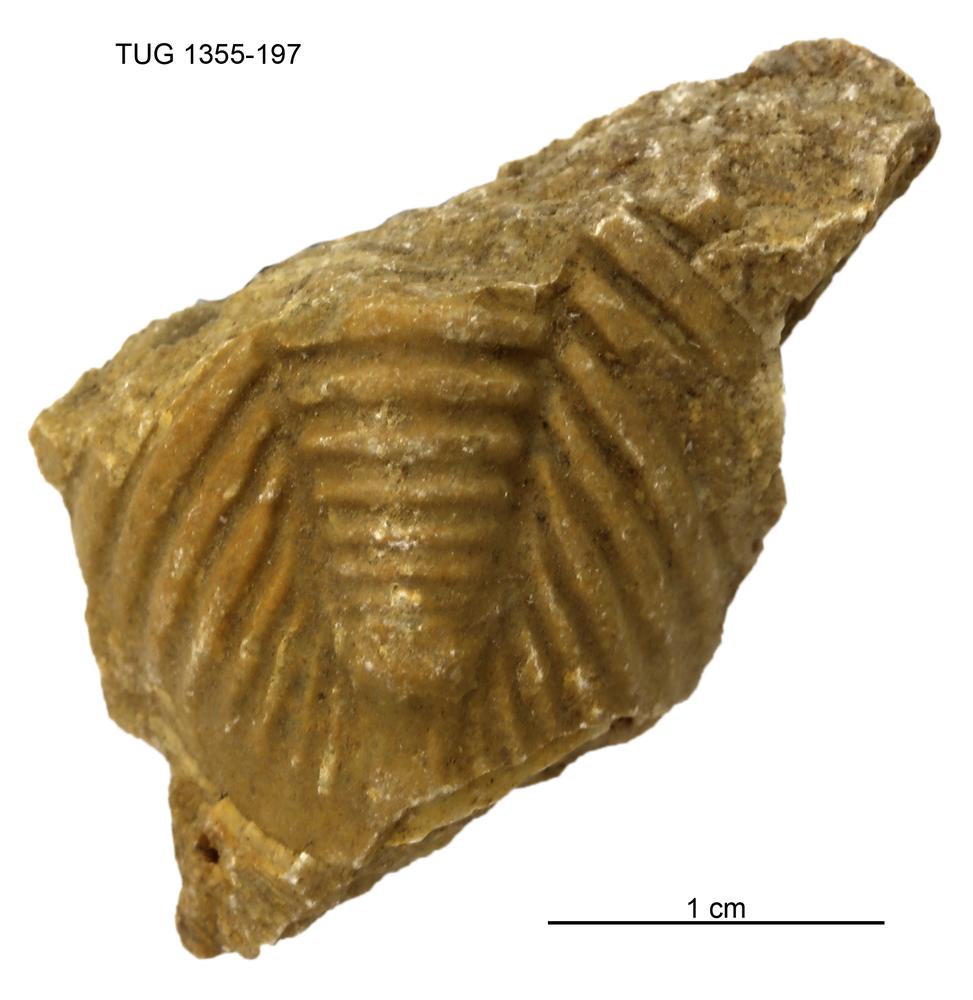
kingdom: Animalia
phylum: Arthropoda
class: Trilobita
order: Phacopida
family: Pterygometopidae
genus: Chasmops
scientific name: Chasmops macrourus
